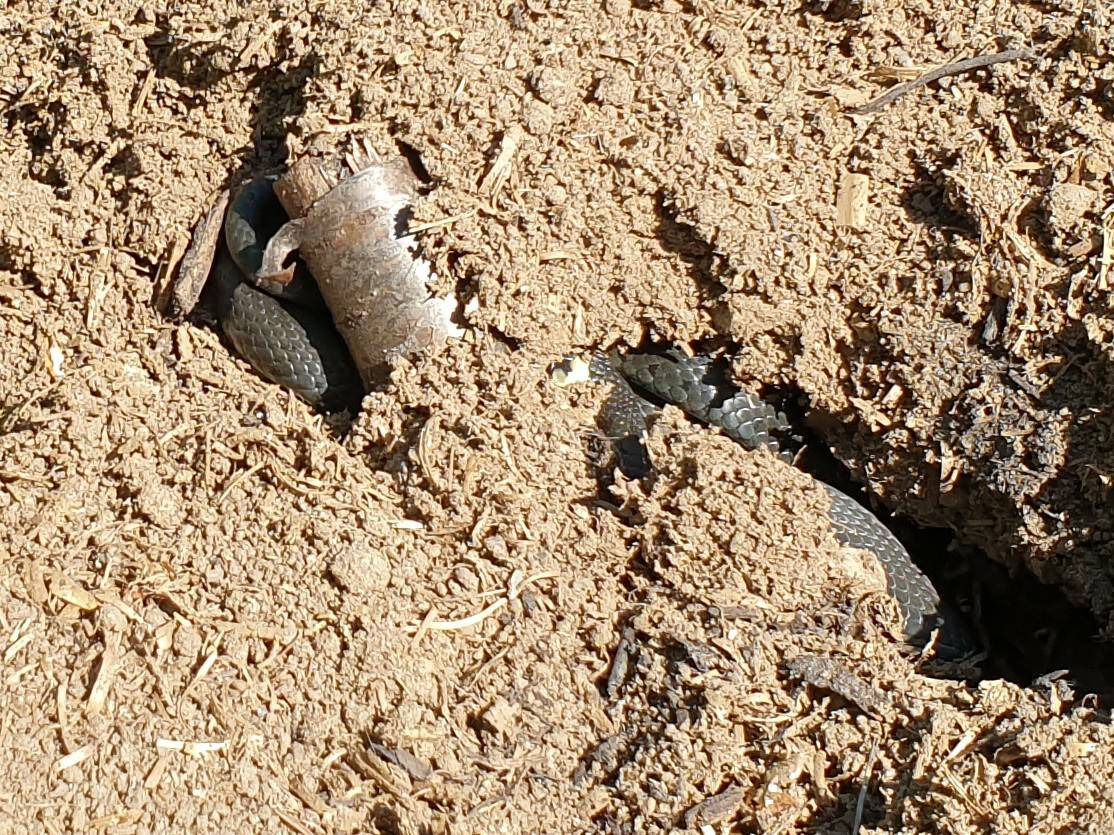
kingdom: Animalia
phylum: Chordata
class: Squamata
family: Colubridae
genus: Natrix
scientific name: Natrix natrix
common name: Snog
